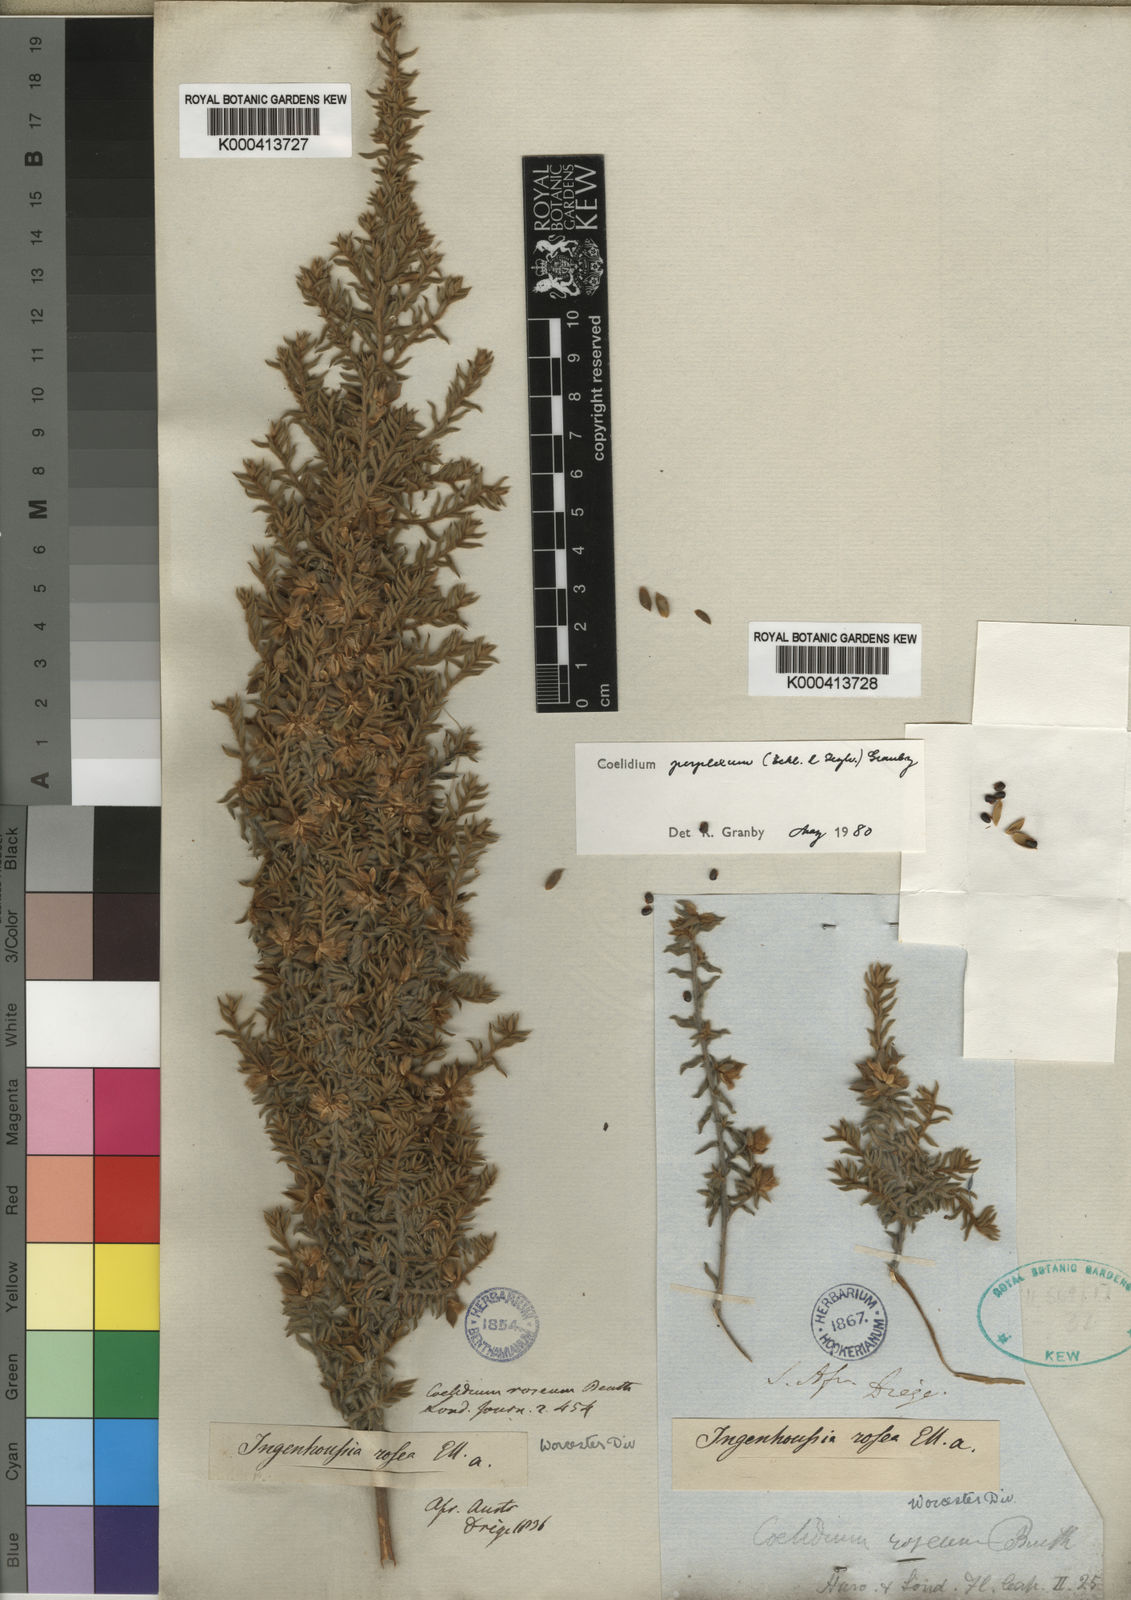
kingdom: Plantae
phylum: Tracheophyta
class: Magnoliopsida
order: Fabales
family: Fabaceae
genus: Amphithalea
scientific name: Amphithalea perplexa
